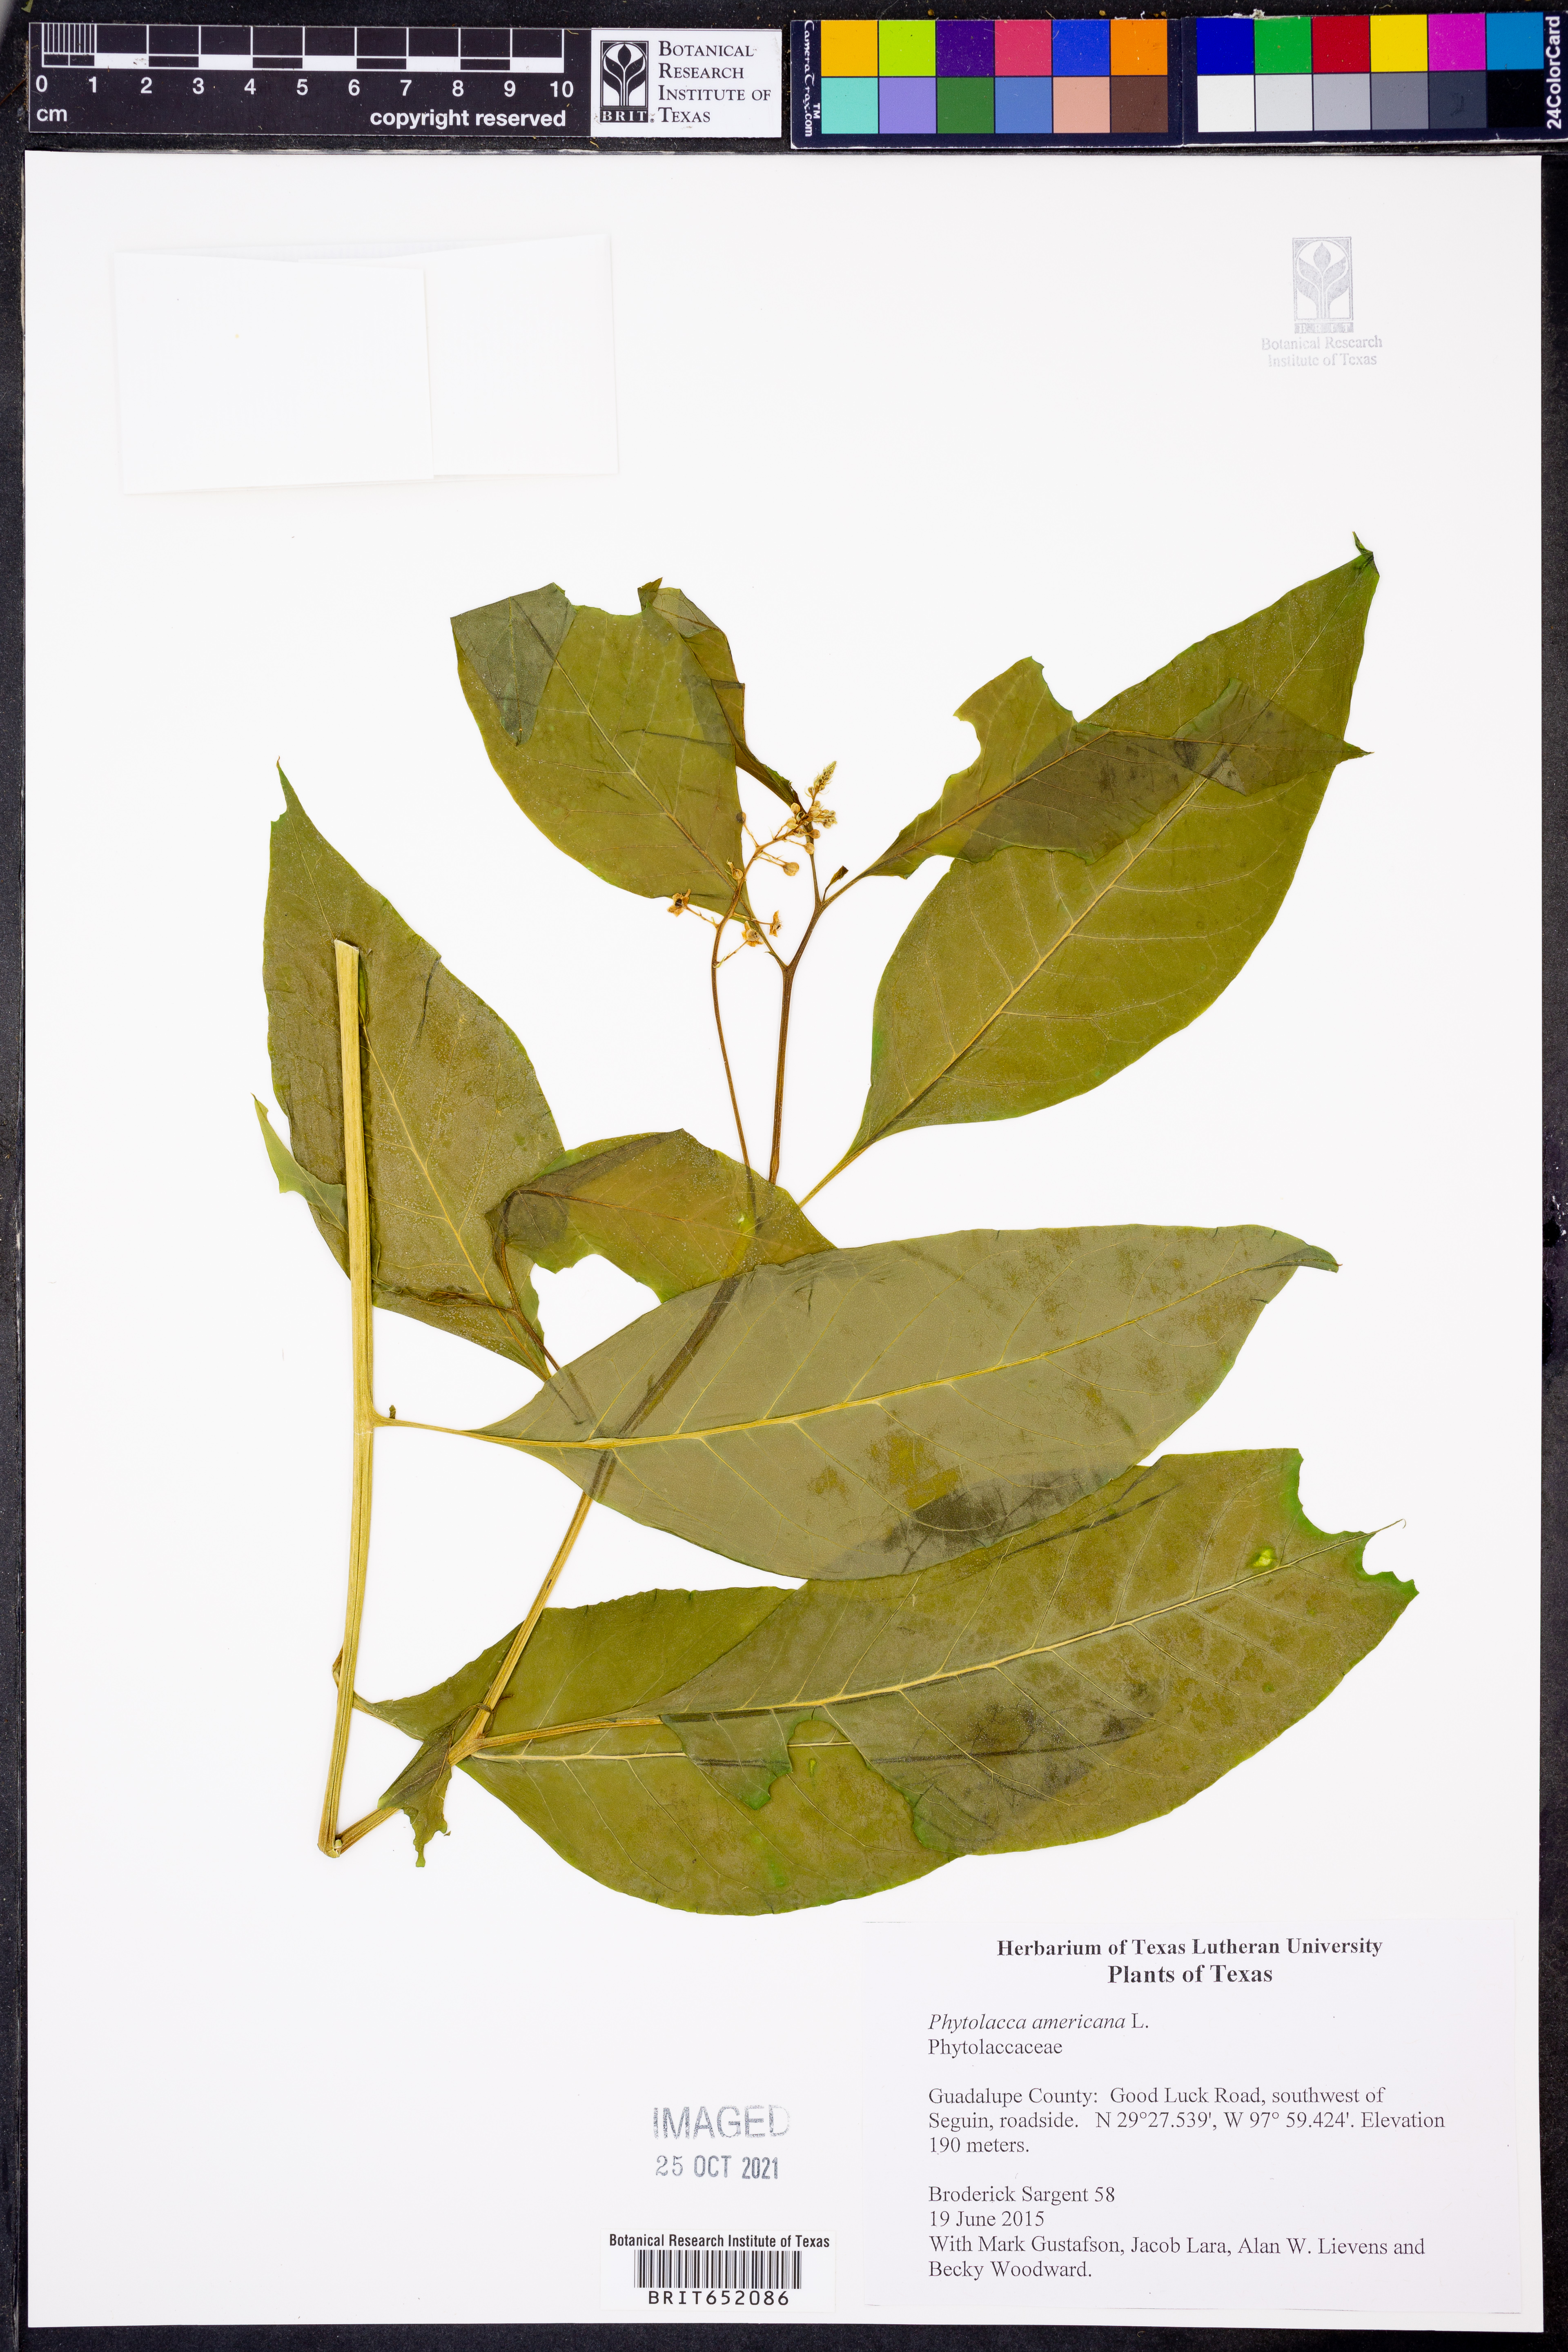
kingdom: Plantae
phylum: Tracheophyta
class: Magnoliopsida
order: Caryophyllales
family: Phytolaccaceae
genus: Phytolacca
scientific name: Phytolacca americana
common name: American pokeweed
